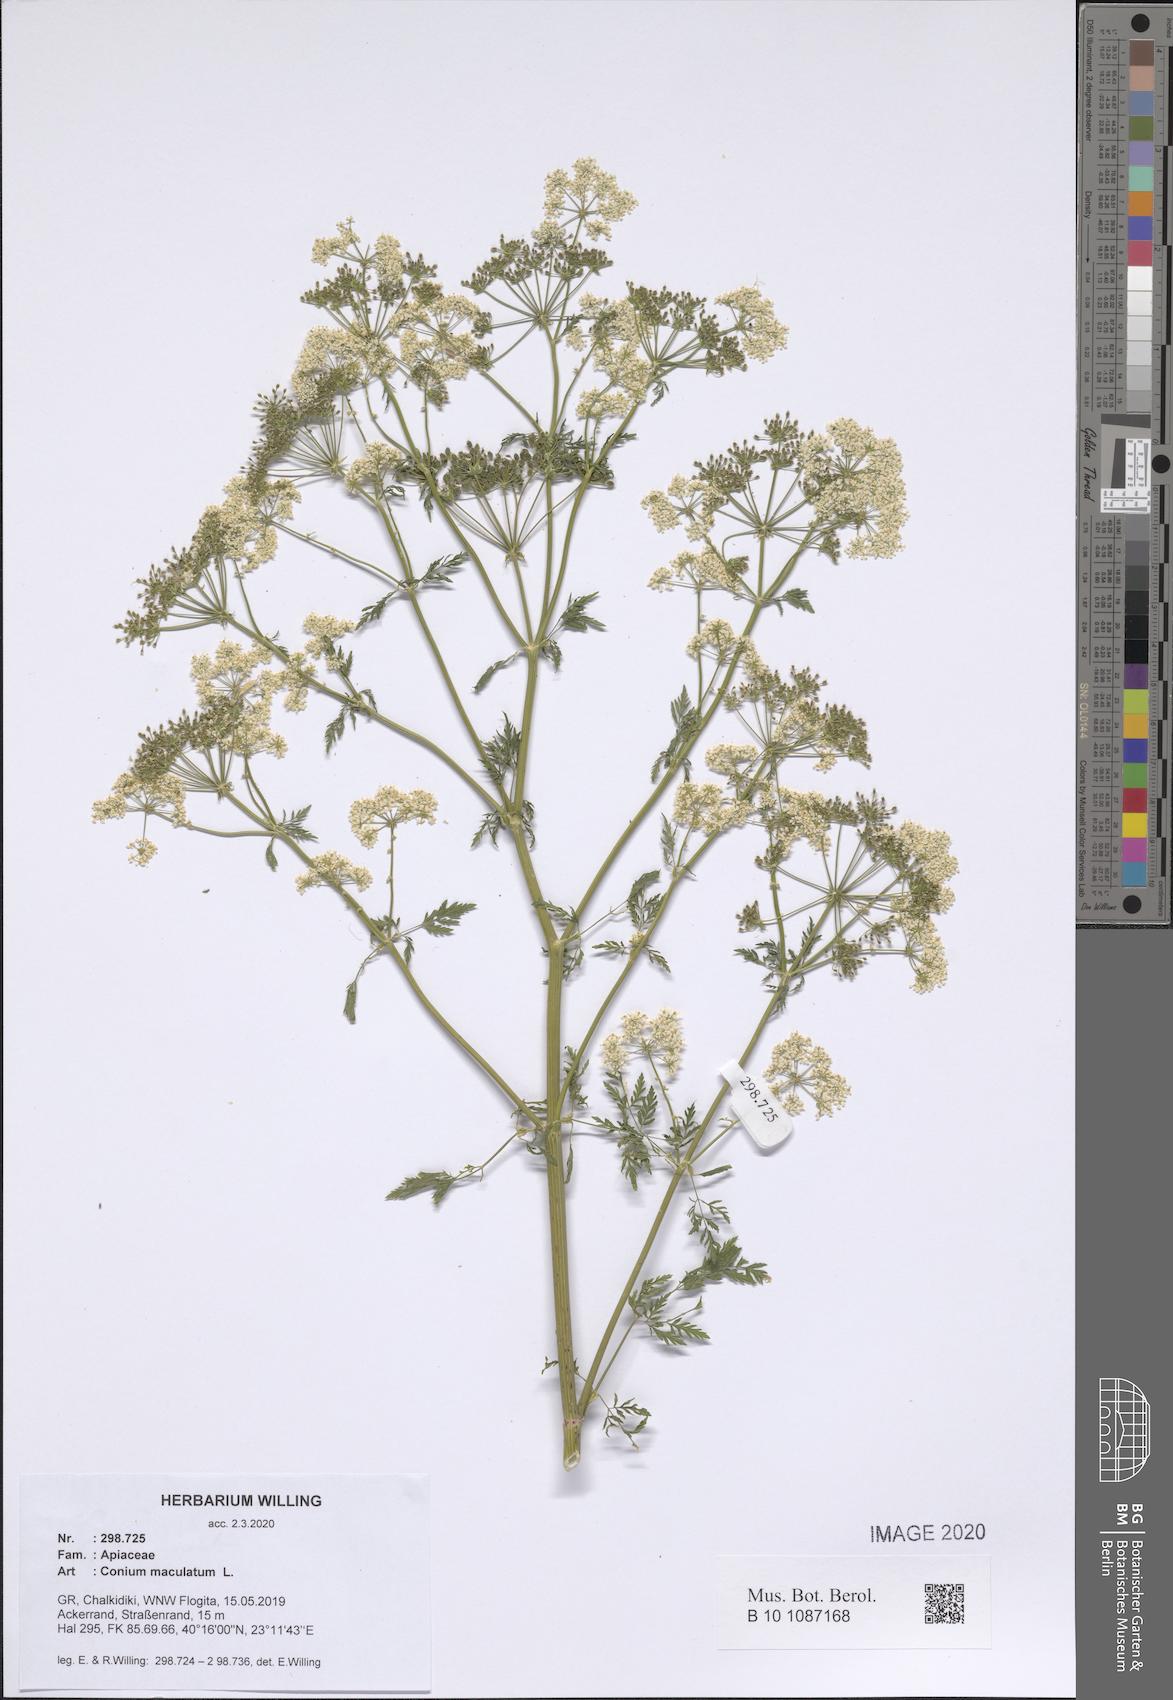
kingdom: Plantae
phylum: Tracheophyta
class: Magnoliopsida
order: Apiales
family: Apiaceae
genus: Conium
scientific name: Conium maculatum
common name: Hemlock
